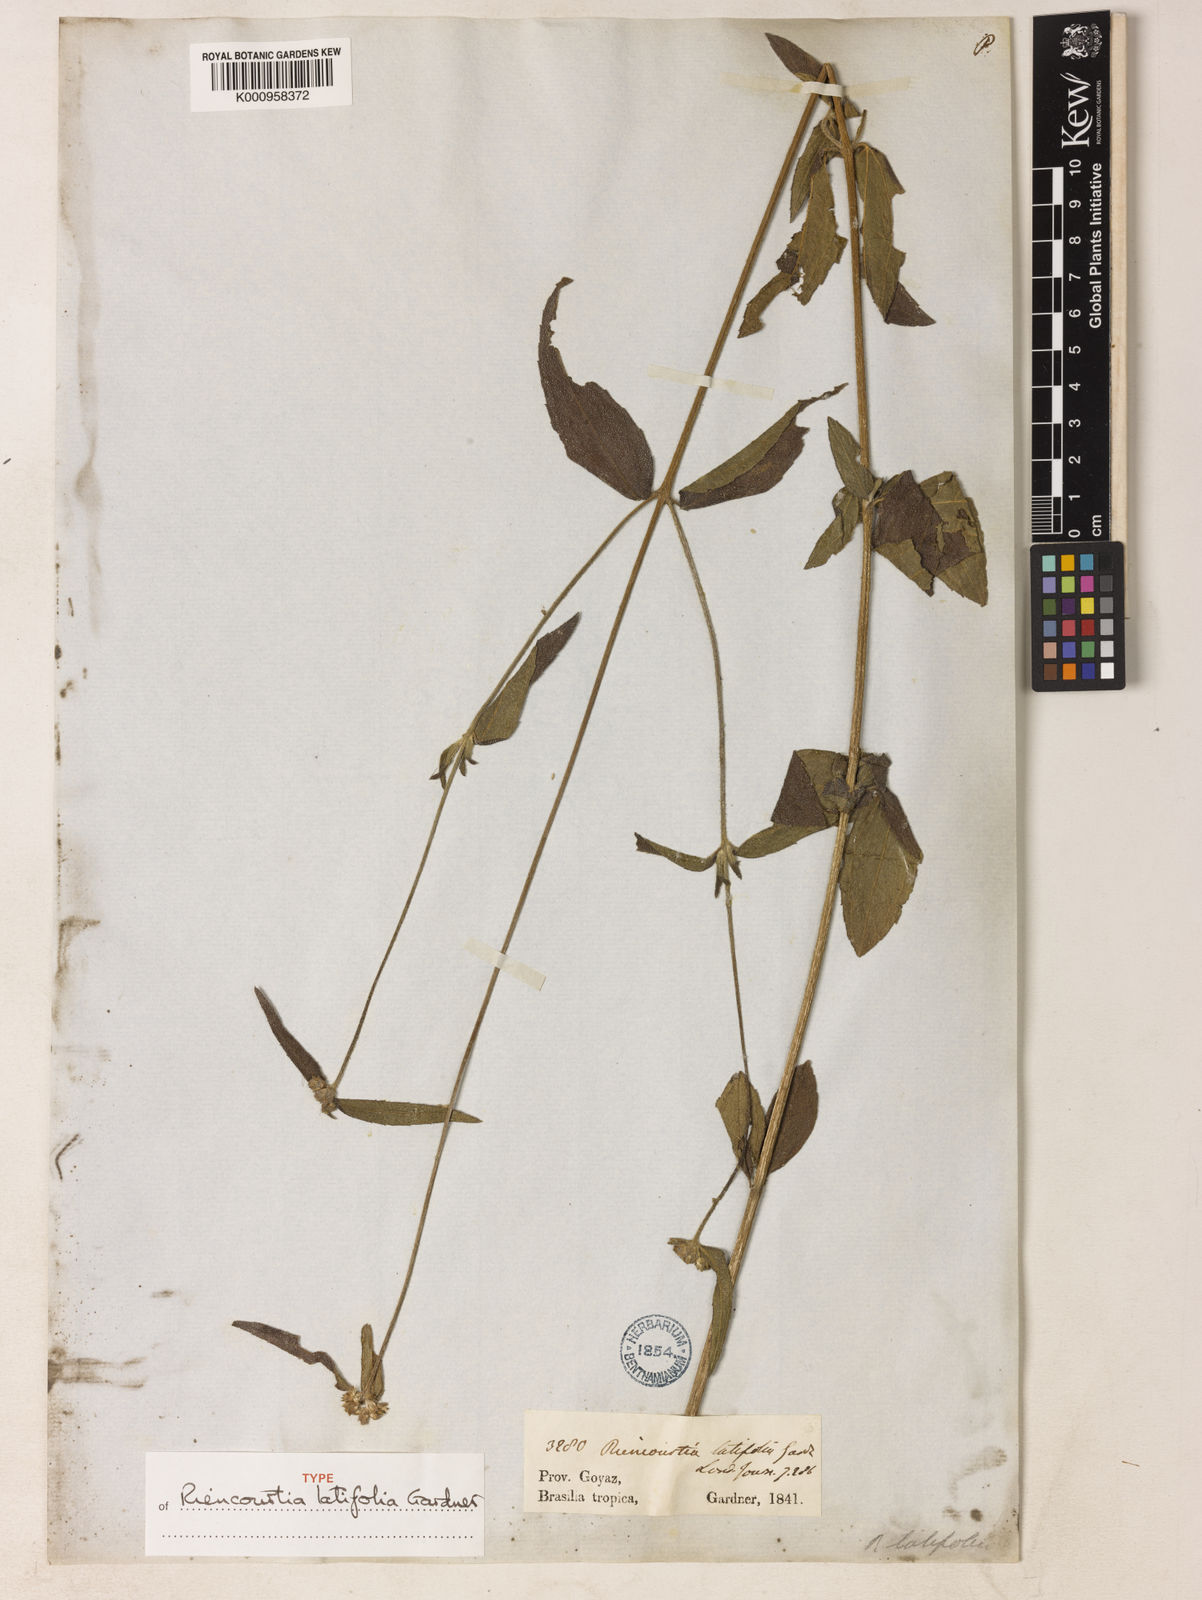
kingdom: Plantae
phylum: Tracheophyta
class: Magnoliopsida
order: Asterales
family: Asteraceae
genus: Riencourtia
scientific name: Riencourtia latifolia
